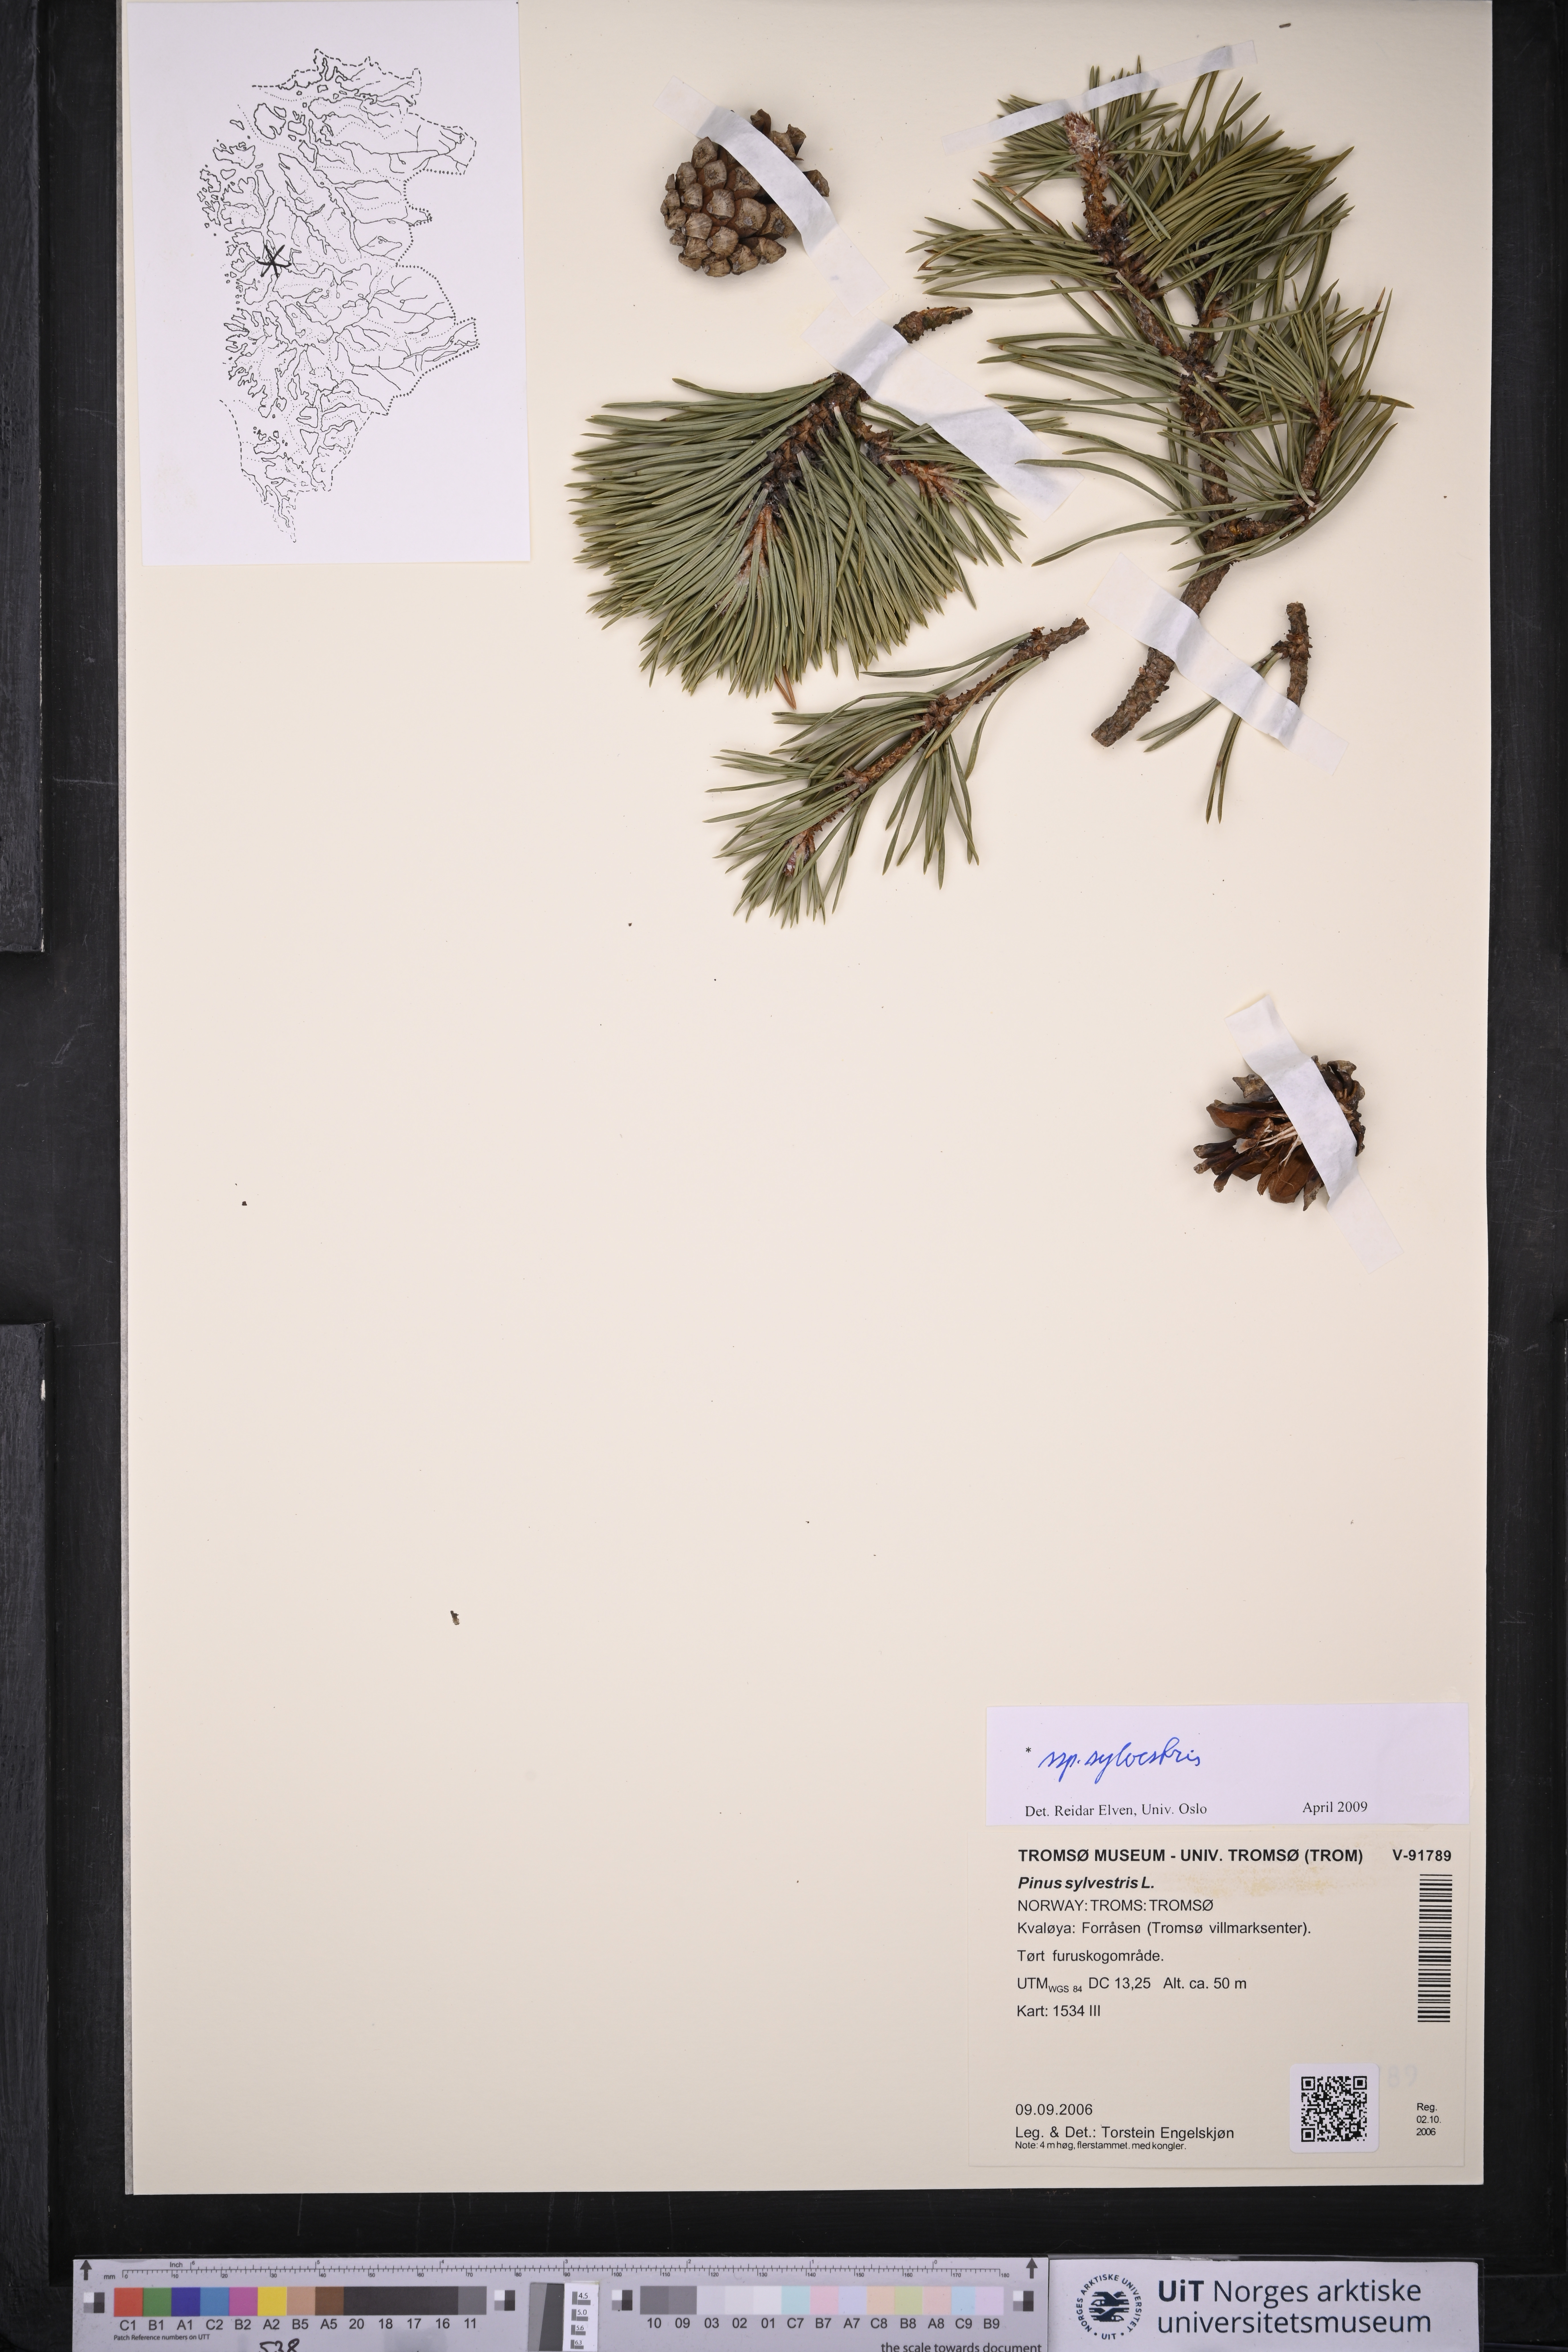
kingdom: Plantae
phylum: Tracheophyta
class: Pinopsida
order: Pinales
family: Pinaceae
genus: Pinus
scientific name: Pinus sylvestris
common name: Scots pine
